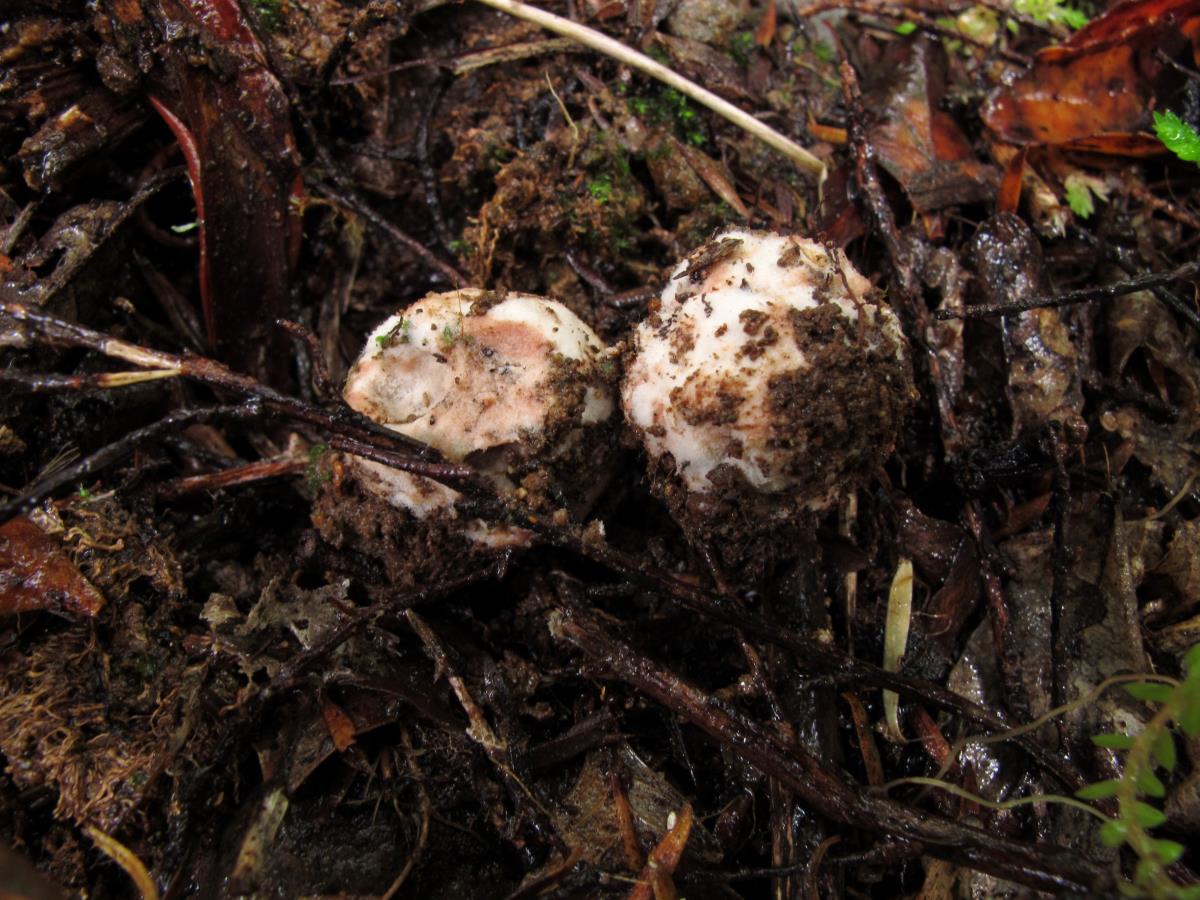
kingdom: Fungi
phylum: Glomeromycota
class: Glomeromycetes
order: Glomerales
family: Glomeraceae
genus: Glomus
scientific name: Glomus
